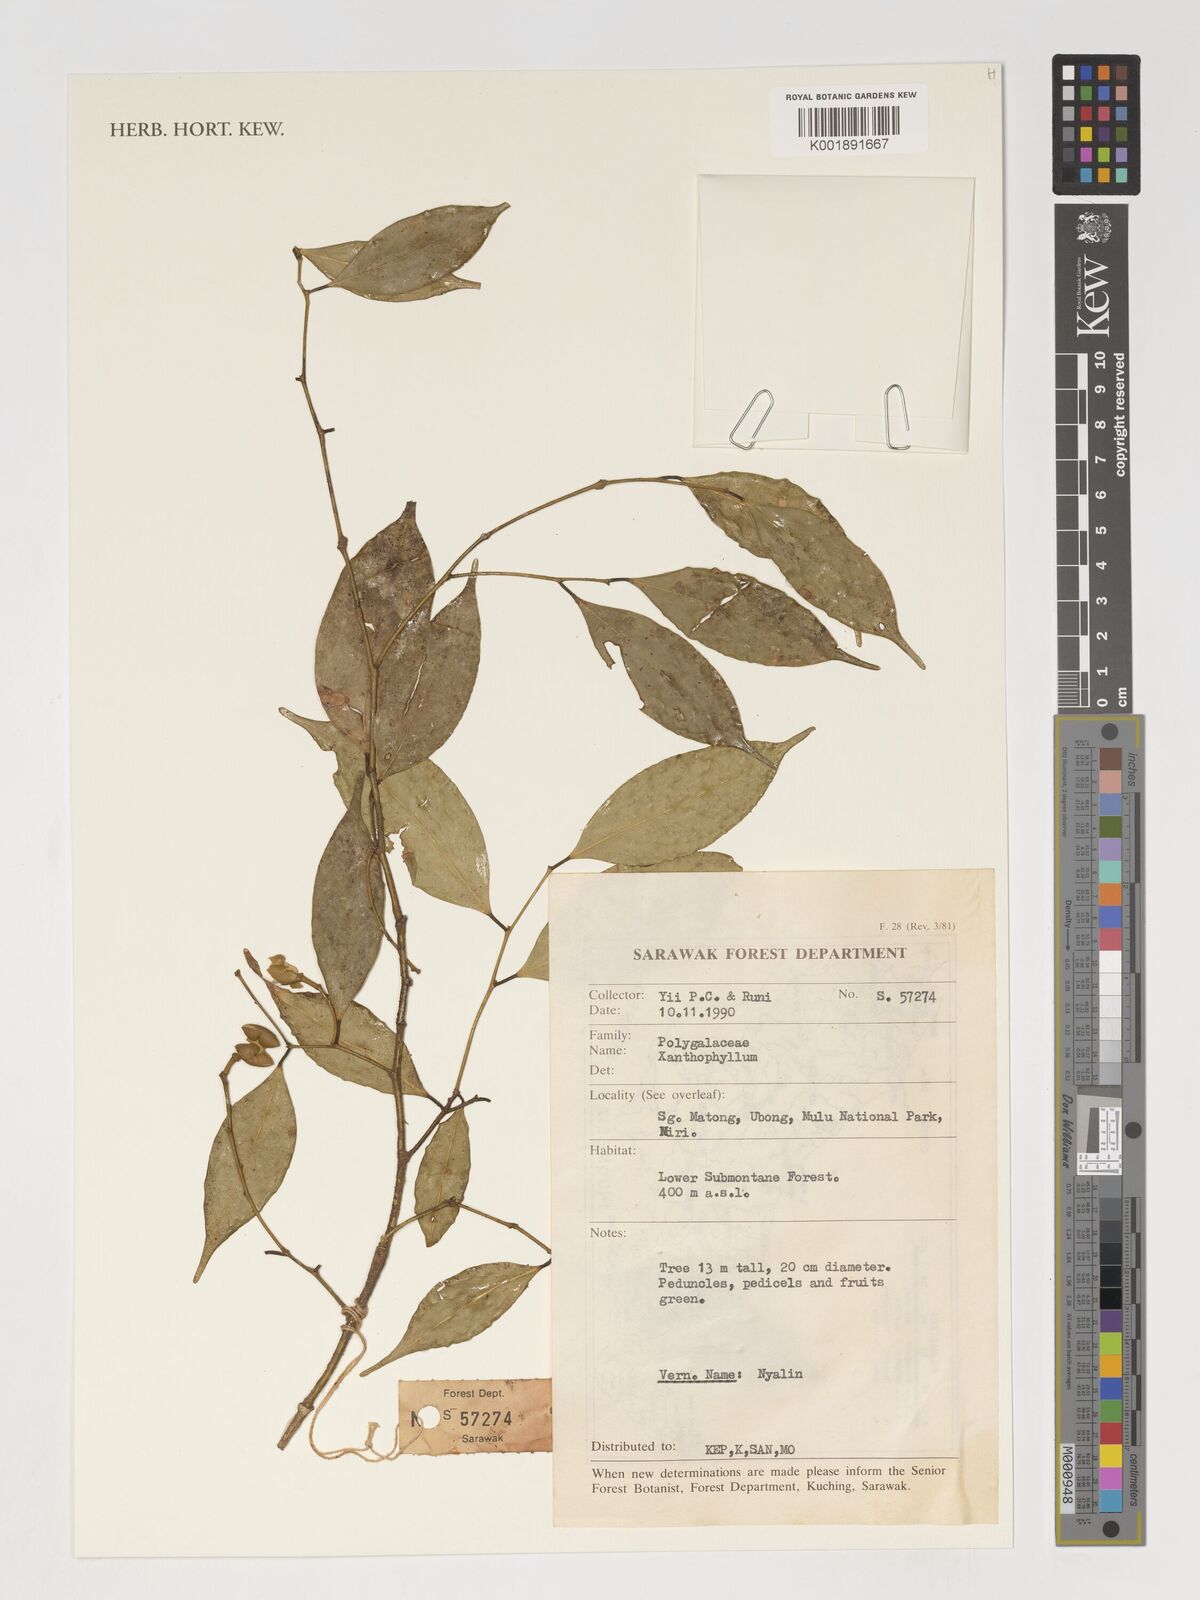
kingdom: Plantae
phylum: Tracheophyta
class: Magnoliopsida
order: Fabales
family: Polygalaceae
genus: Xanthophyllum
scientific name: Xanthophyllum
